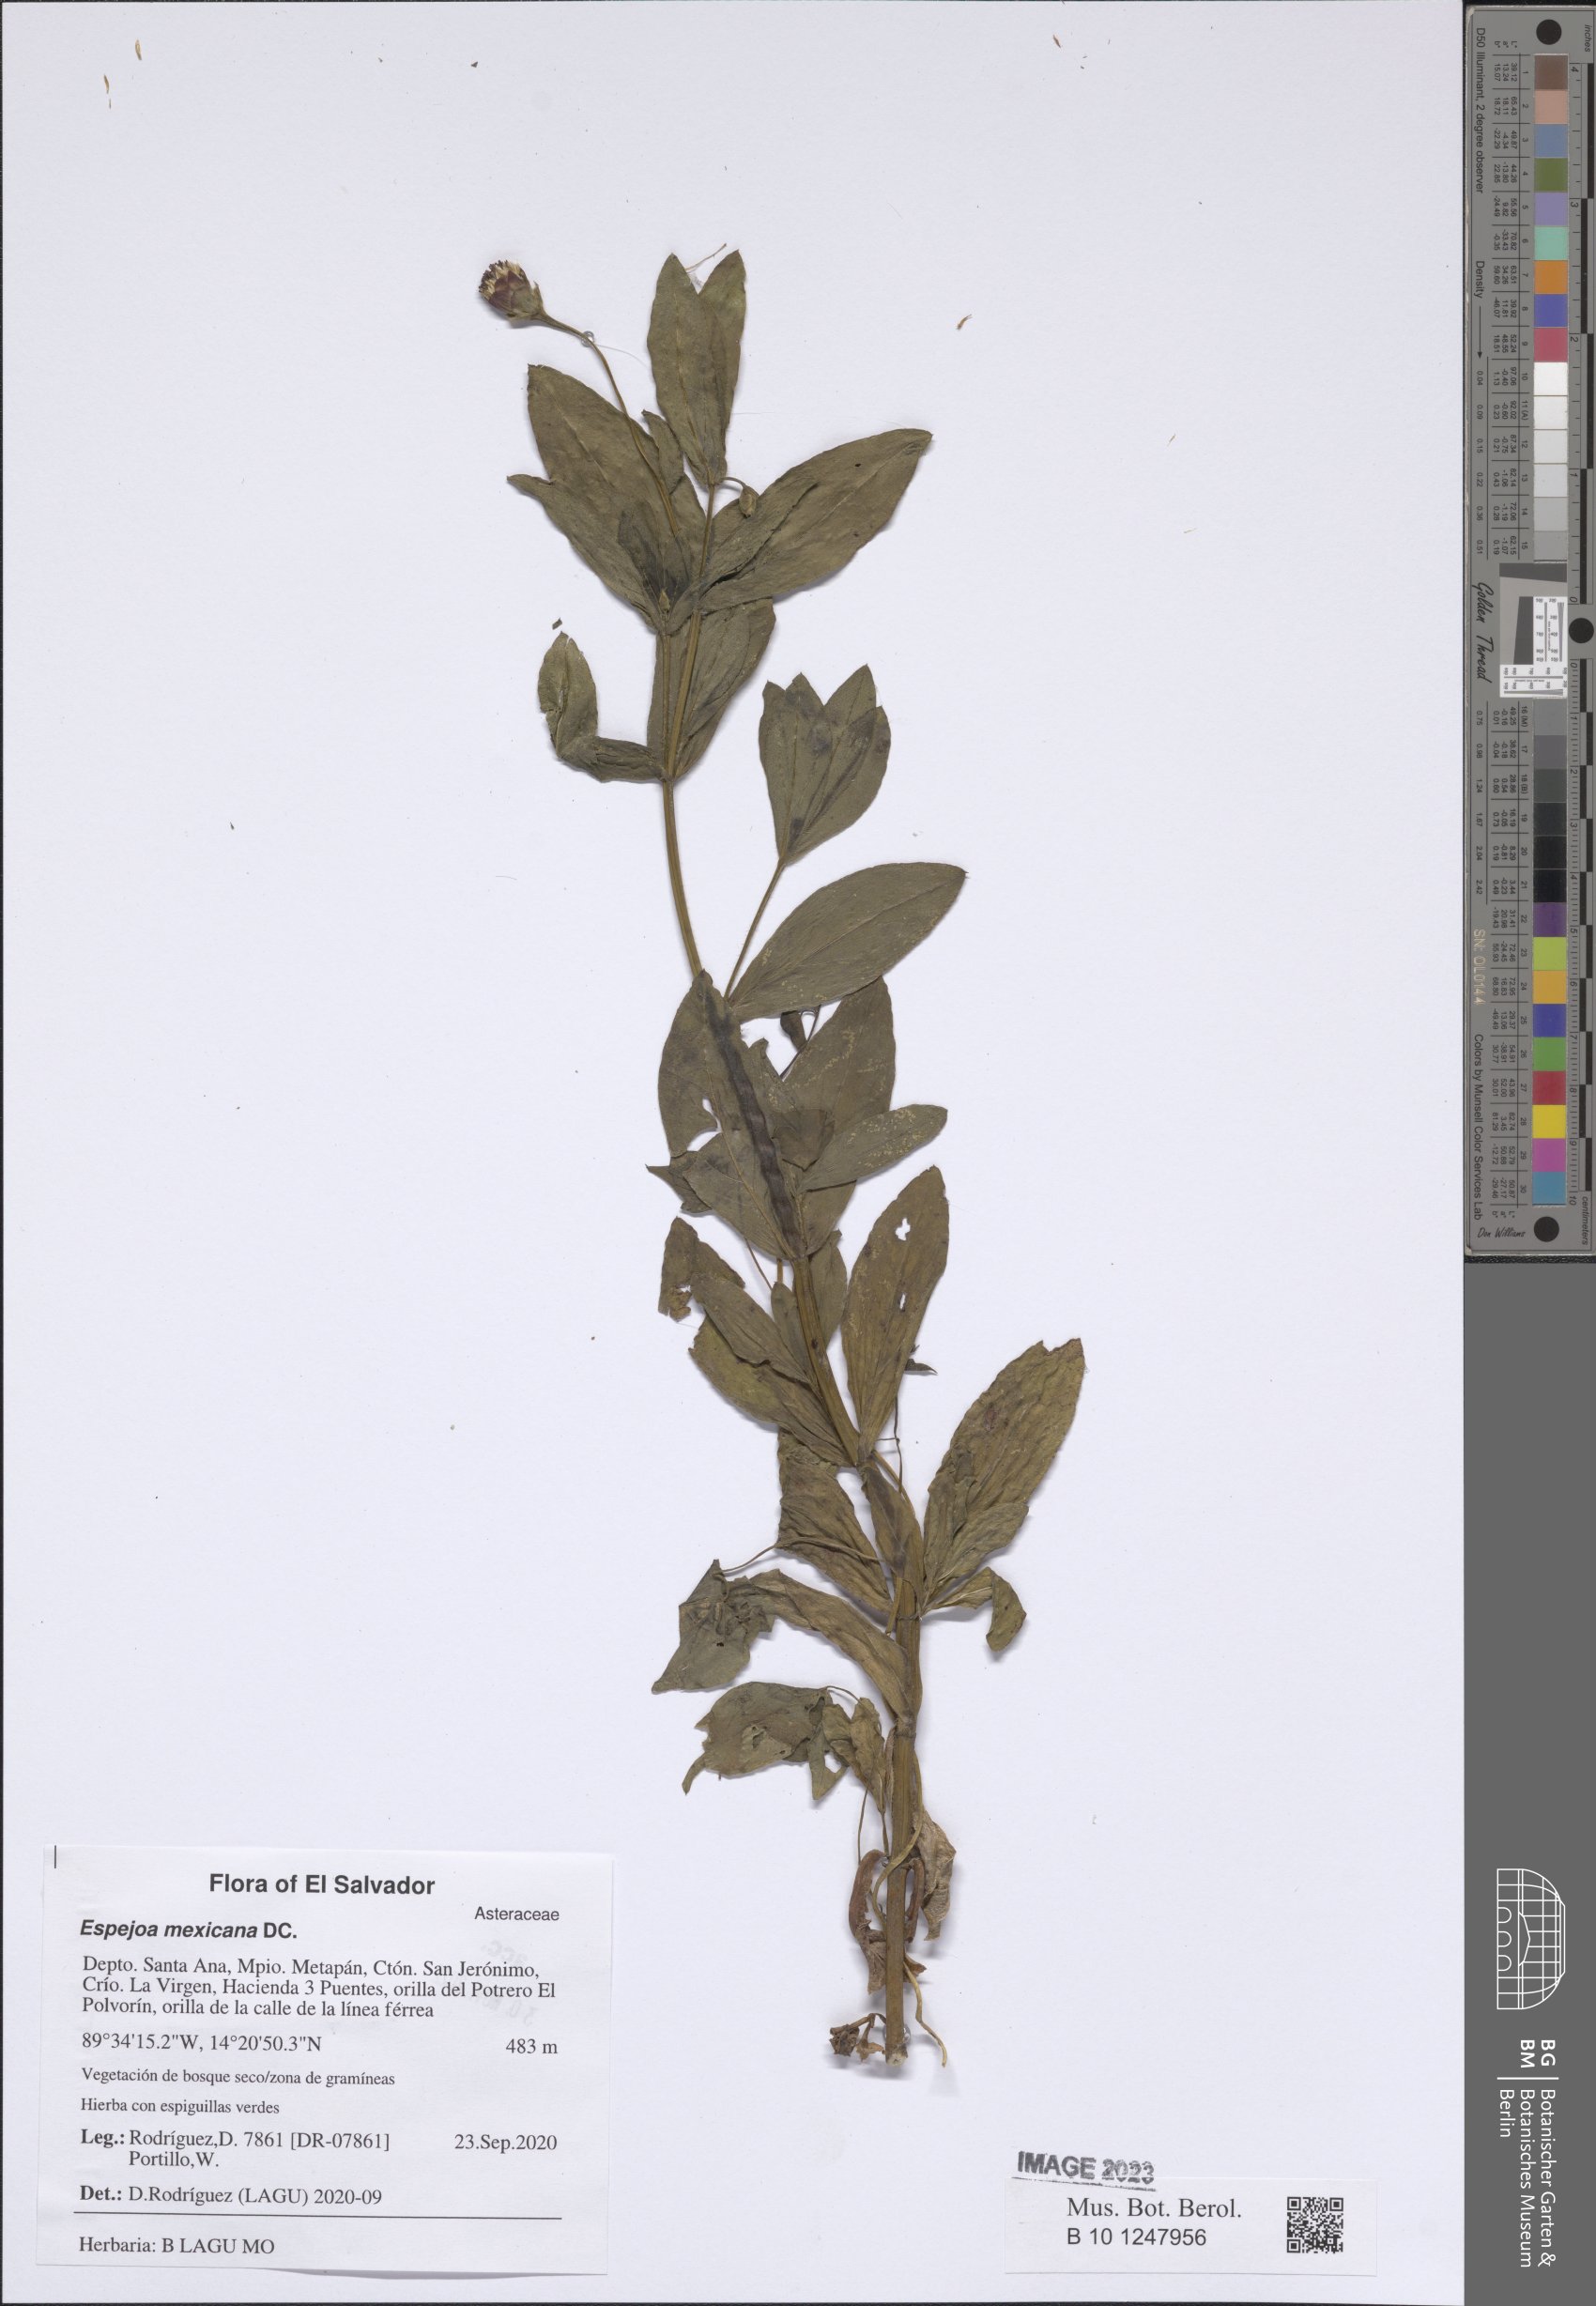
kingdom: Plantae
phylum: Tracheophyta
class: Magnoliopsida
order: Asterales
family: Asteraceae
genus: Espejoa
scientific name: Espejoa mexicana
